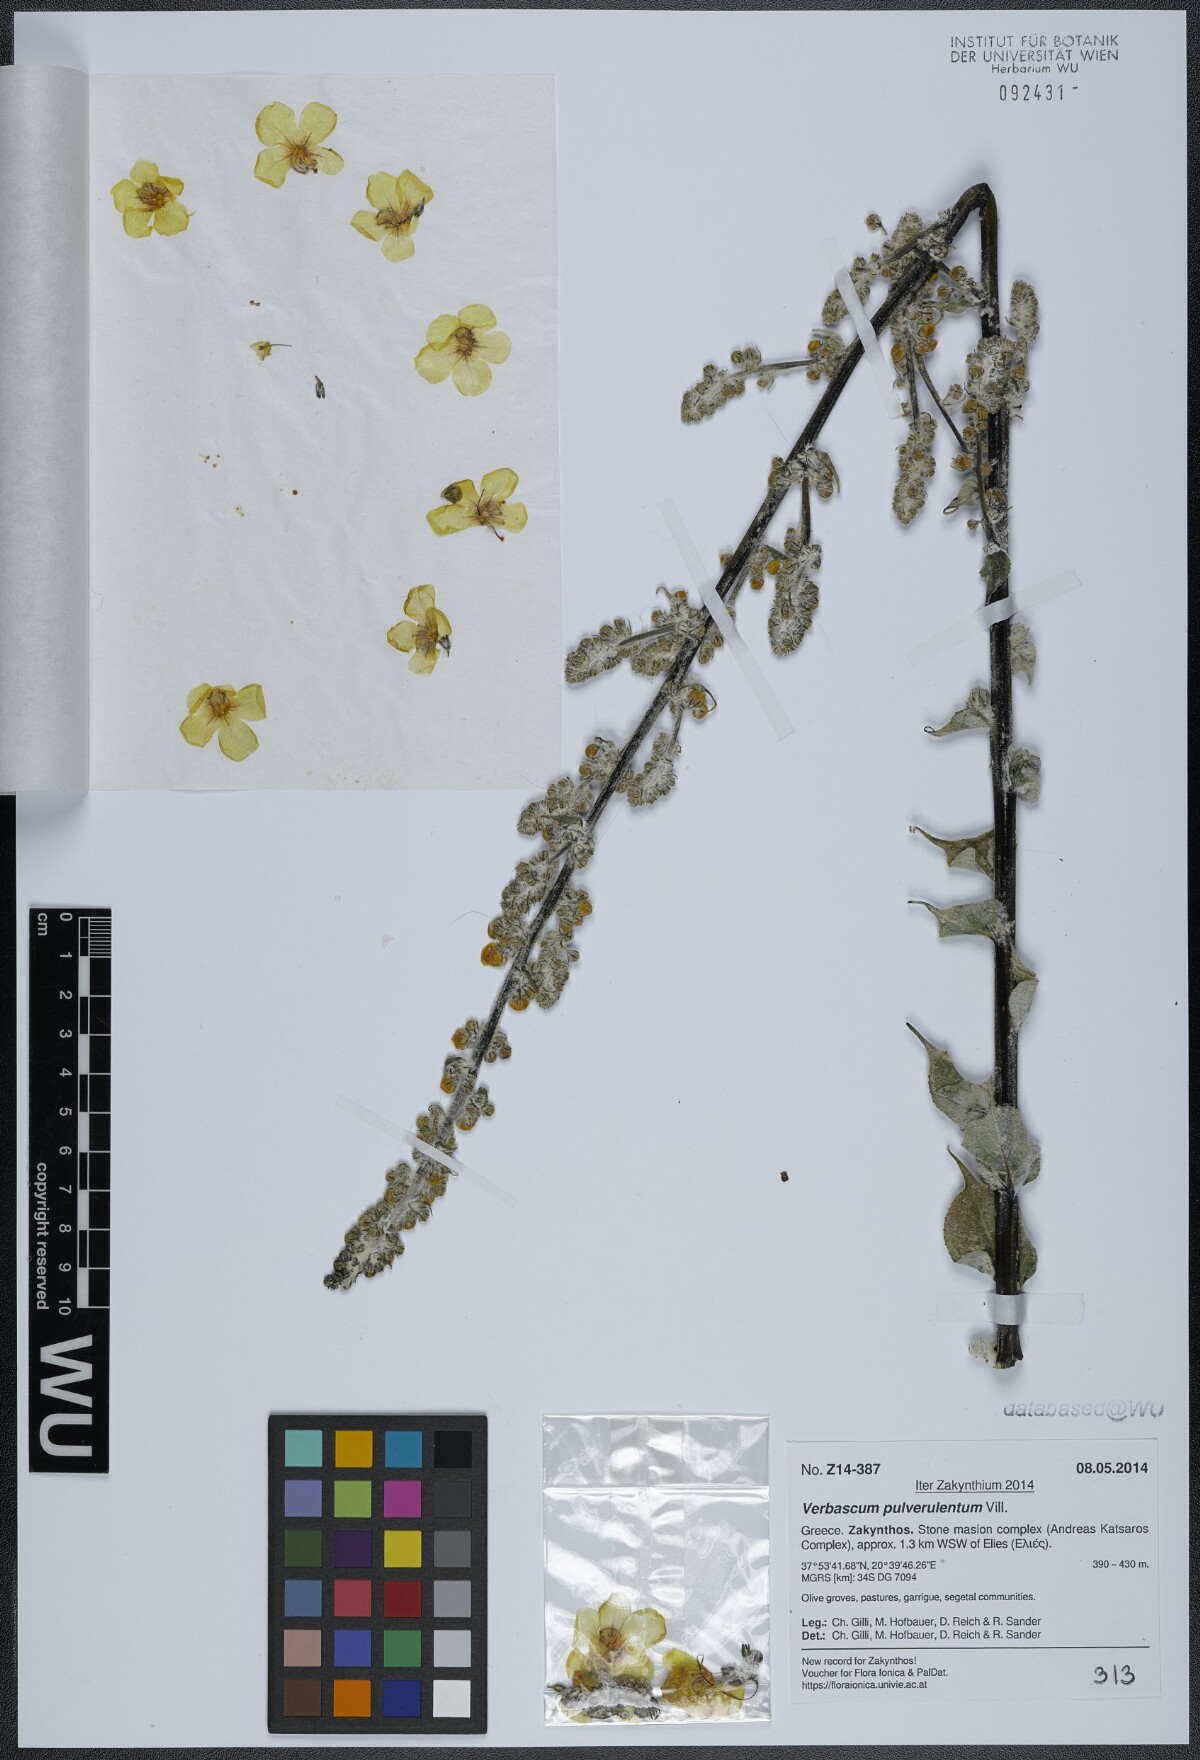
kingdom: Plantae
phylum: Tracheophyta
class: Magnoliopsida
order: Lamiales
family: Scrophulariaceae
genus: Verbascum
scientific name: Verbascum pulverulentum
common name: Broad-leaf mullein
